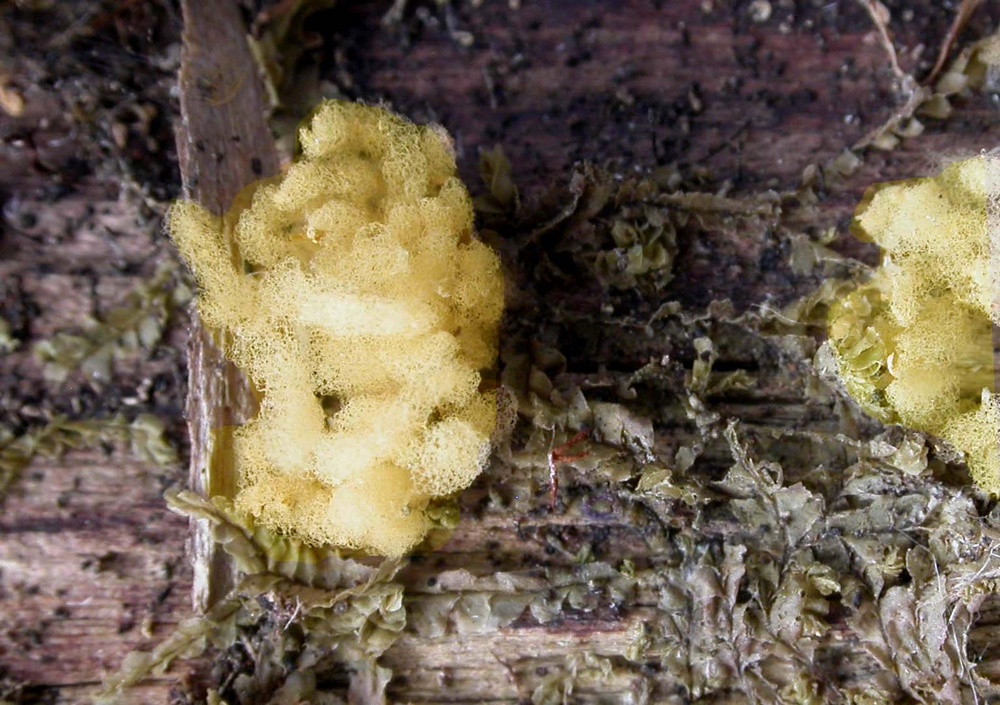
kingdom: Protozoa
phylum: Mycetozoa
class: Myxomycetes
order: Trichiales
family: Arcyriaceae
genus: Arcyria
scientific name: Arcyria obvelata
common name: okkergul skålsvøb
